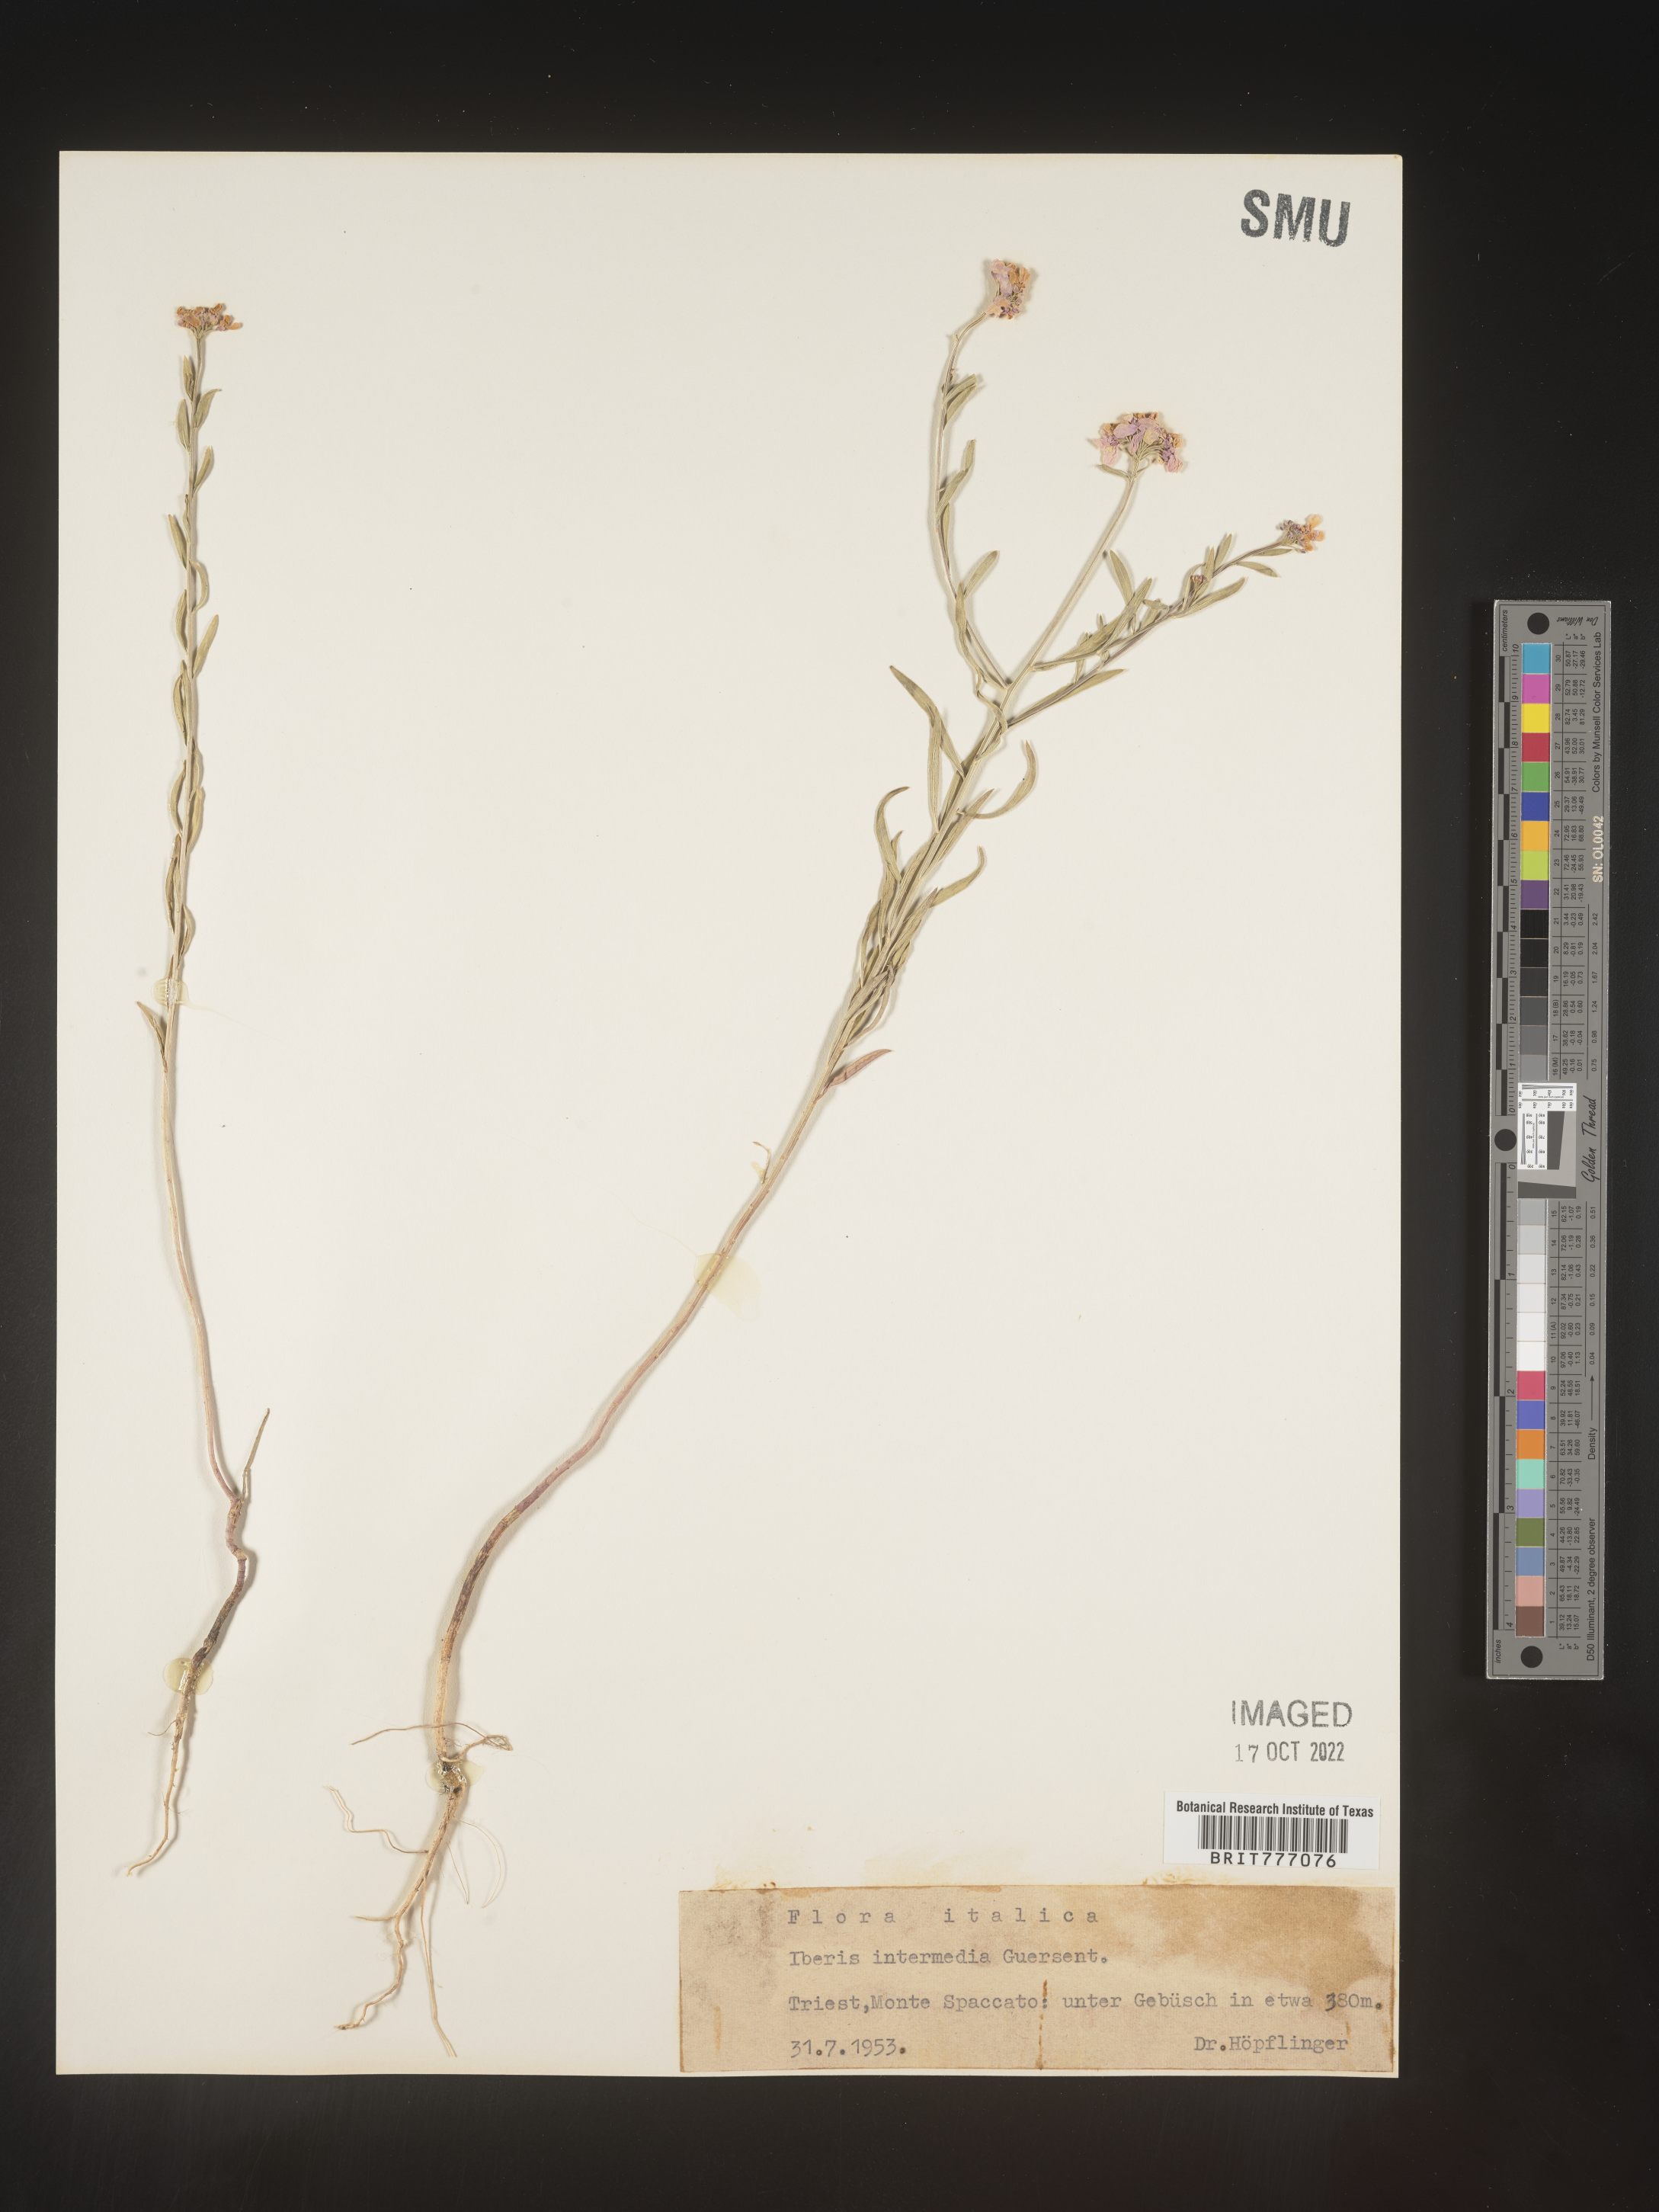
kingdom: Plantae
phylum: Tracheophyta
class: Magnoliopsida
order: Brassicales
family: Brassicaceae
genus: Iberis
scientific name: Iberis
